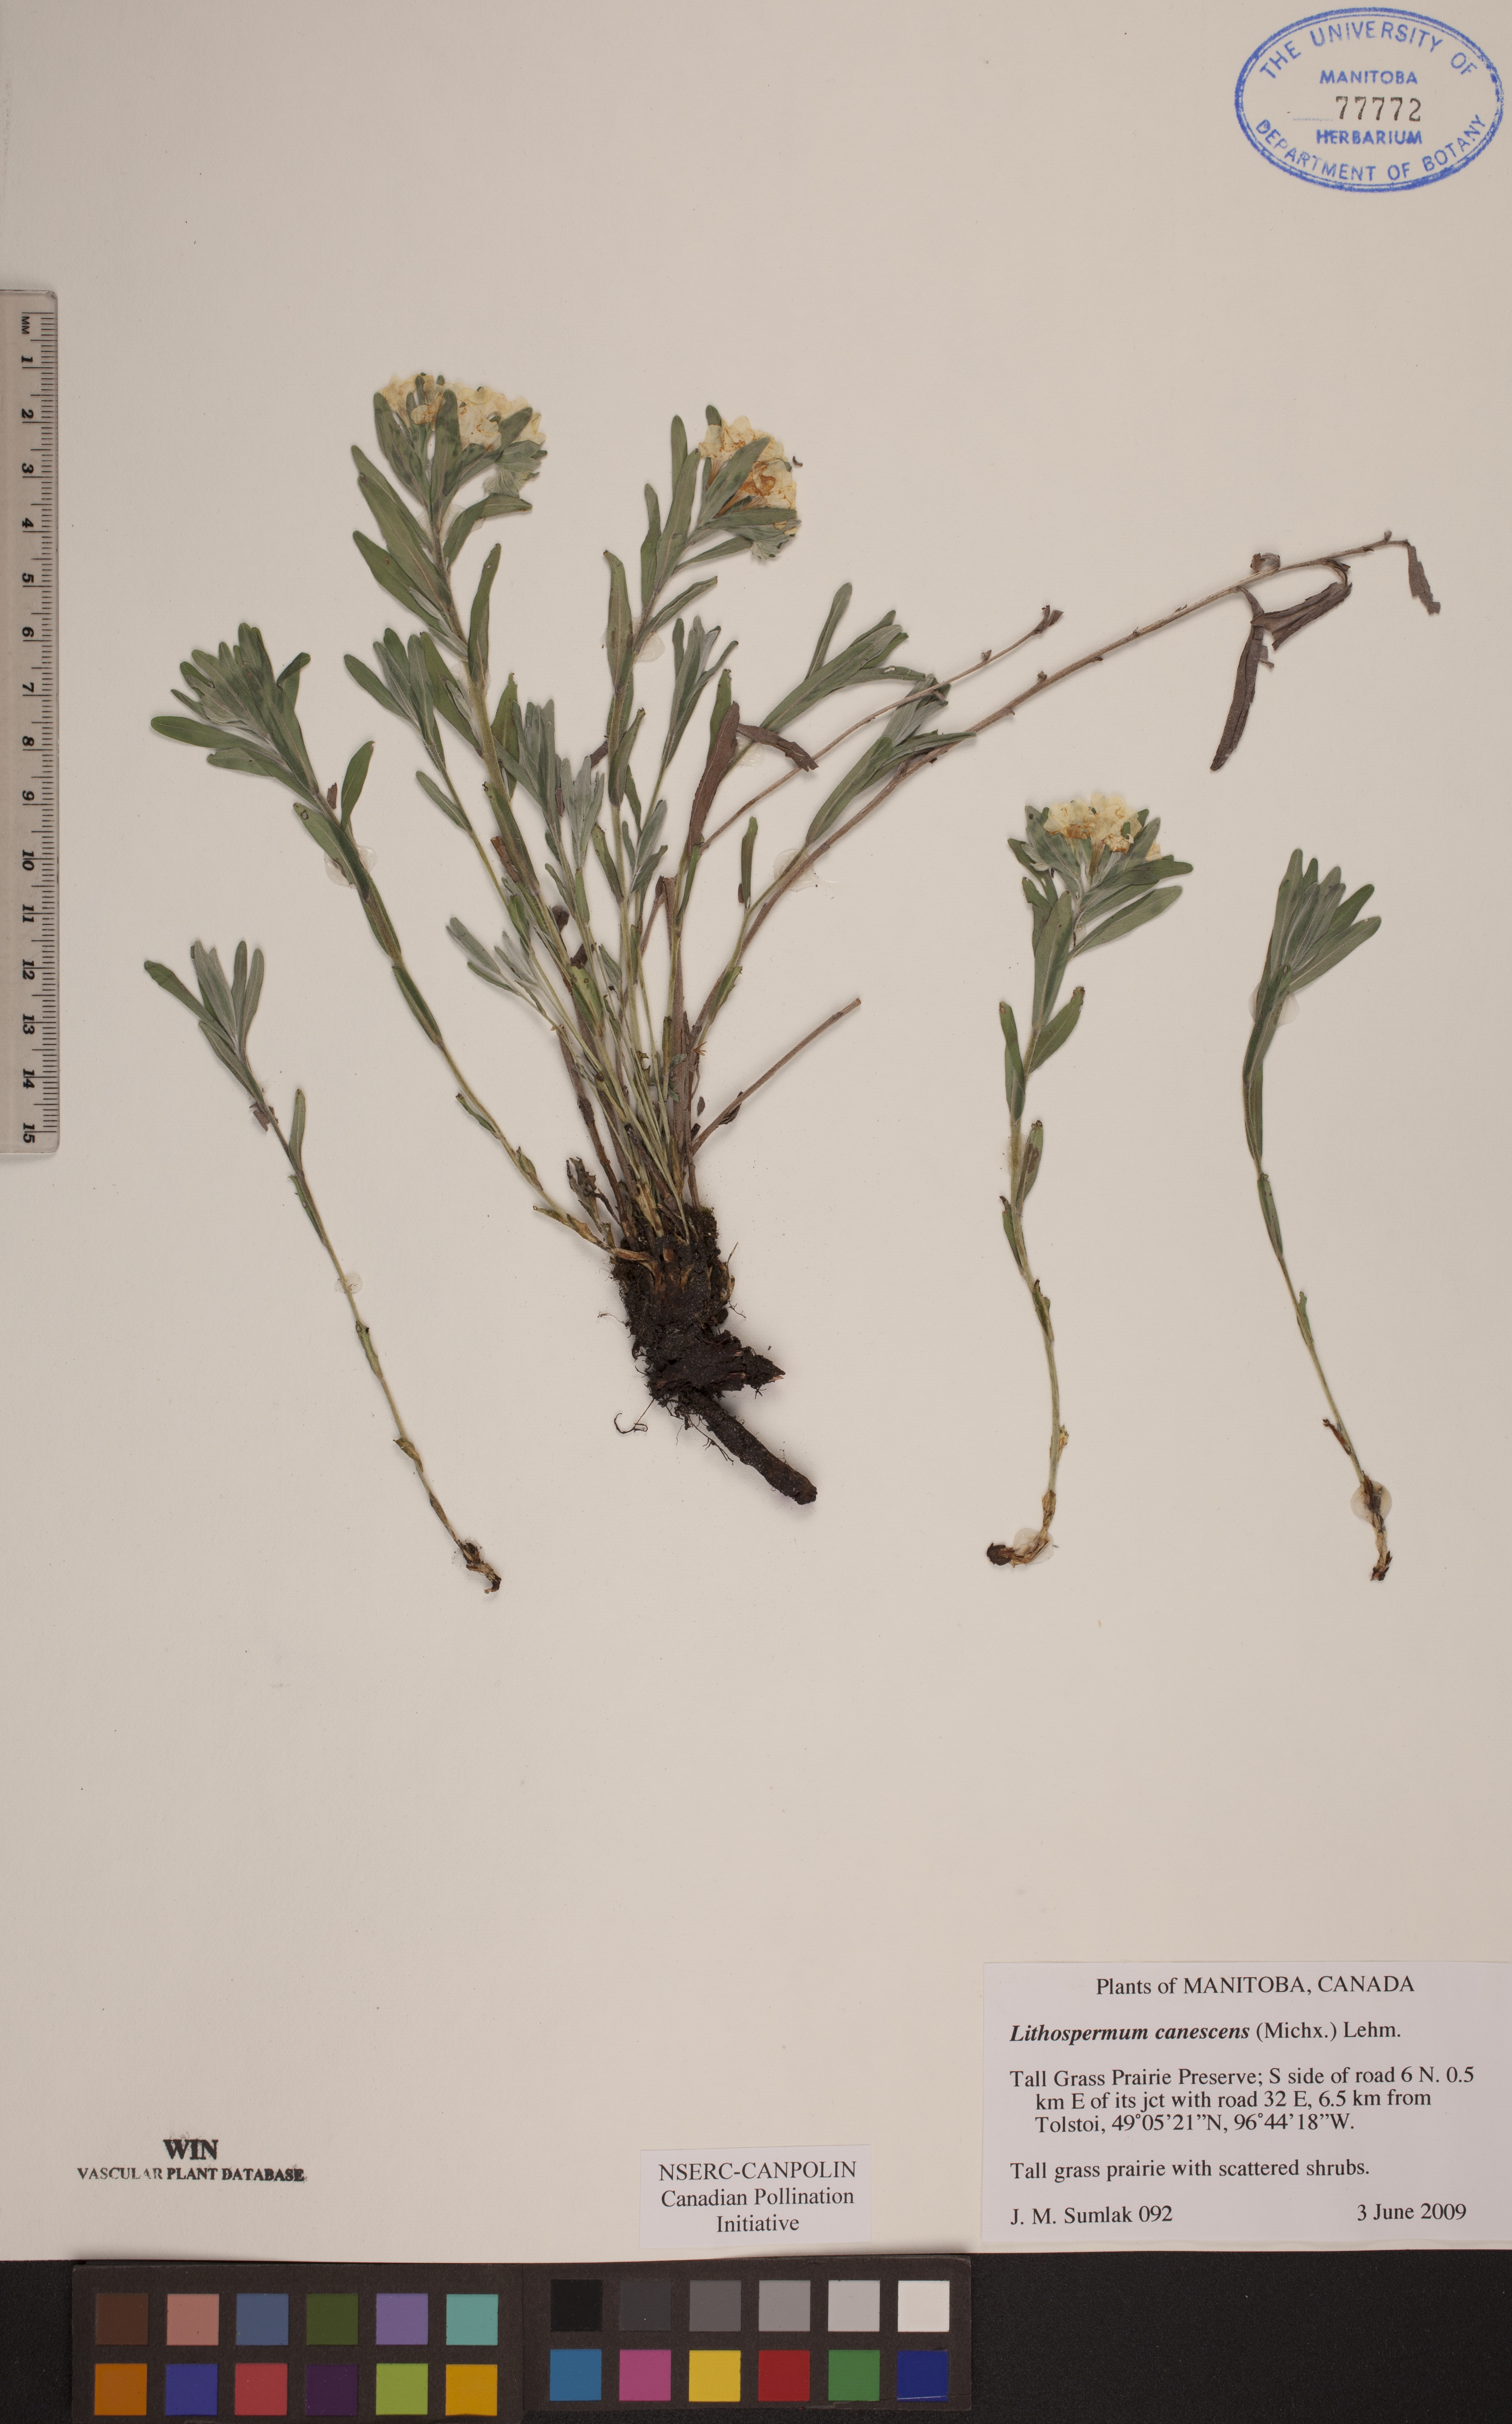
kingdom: Plantae
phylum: Tracheophyta
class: Magnoliopsida
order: Boraginales
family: Boraginaceae
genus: Lithospermum
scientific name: Lithospermum canescens
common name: Hoary puccoon
